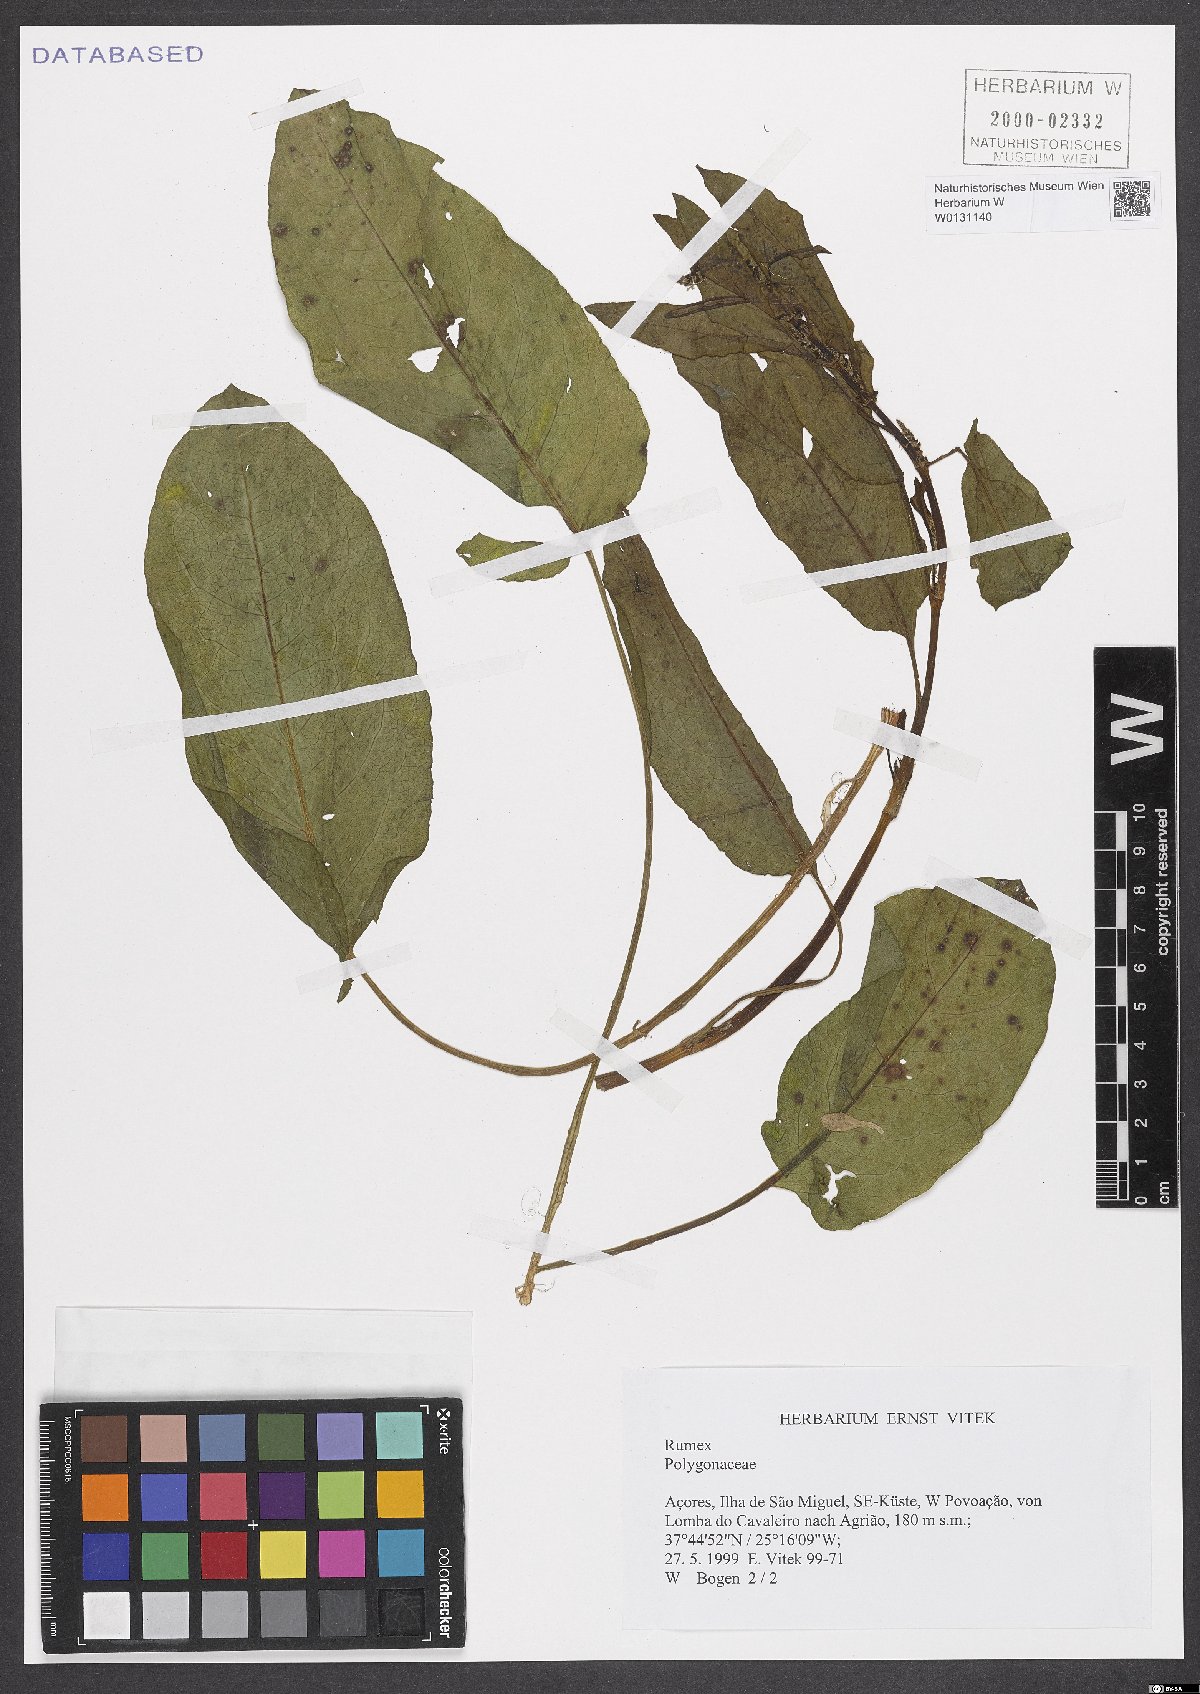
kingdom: Plantae
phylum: Tracheophyta
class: Magnoliopsida
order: Caryophyllales
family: Polygonaceae
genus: Rumex
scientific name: Rumex
